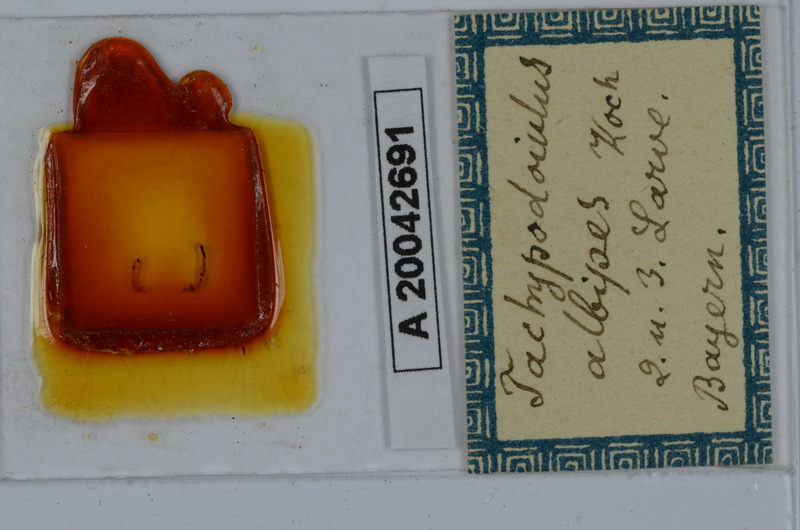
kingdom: Animalia
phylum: Arthropoda
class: Diplopoda
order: Julida
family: Julidae
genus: Tachypodoiulus
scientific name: Tachypodoiulus niger
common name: White-legged snake millipede
